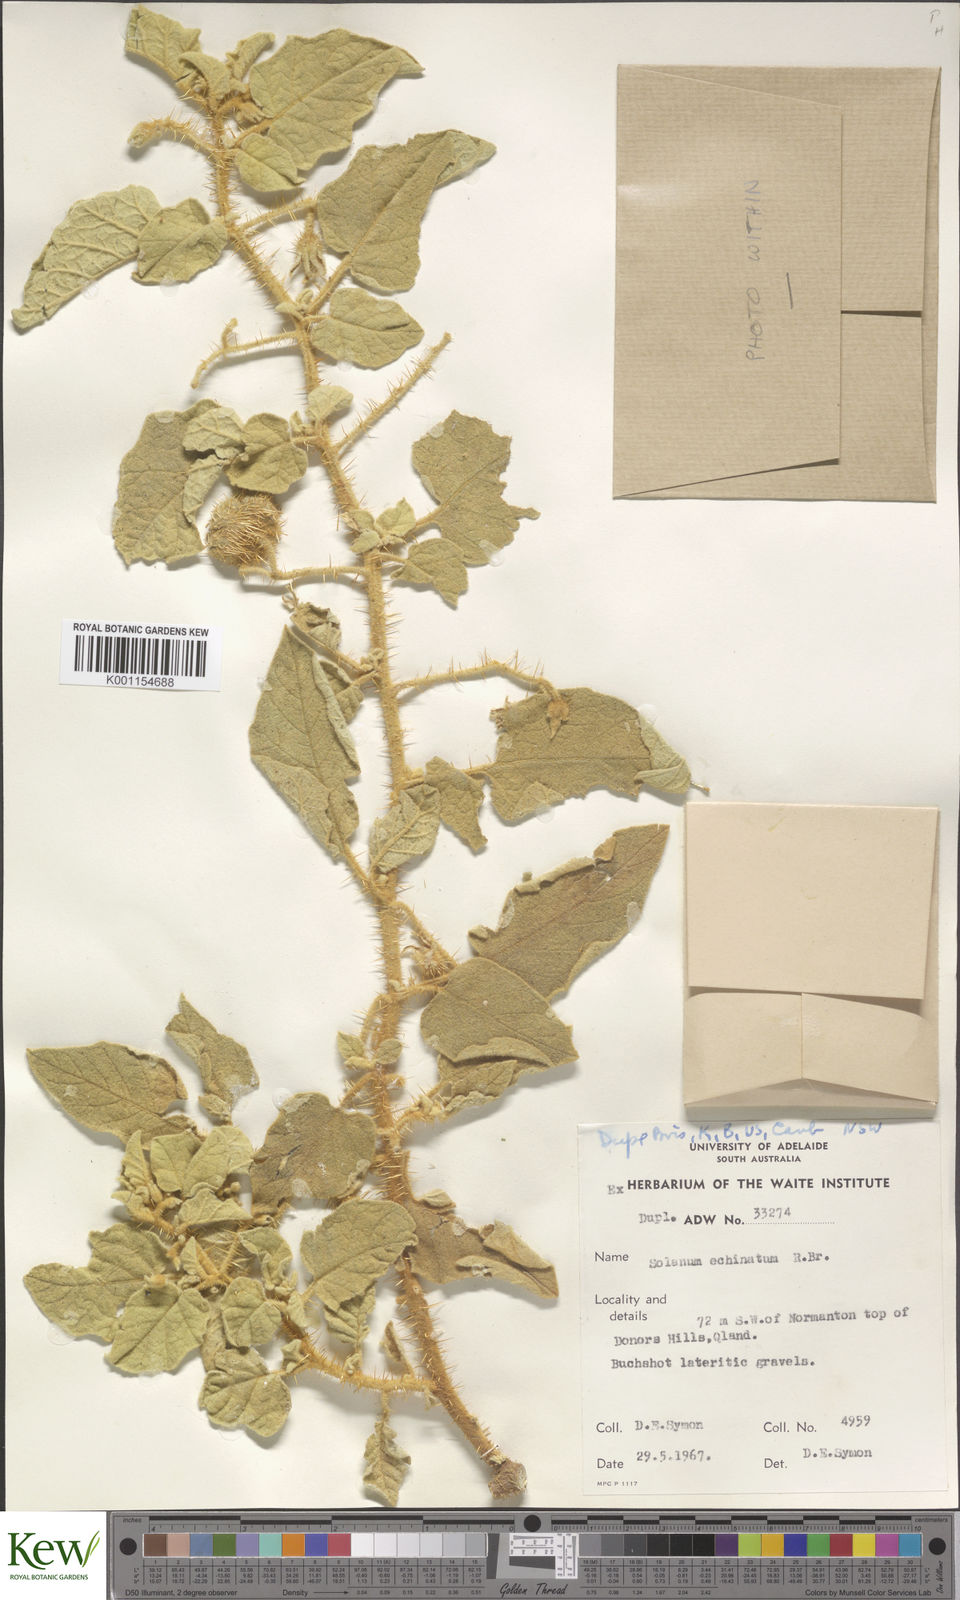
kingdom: Plantae
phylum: Tracheophyta
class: Magnoliopsida
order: Solanales
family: Solanaceae
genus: Solanum
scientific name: Solanum echinatum
